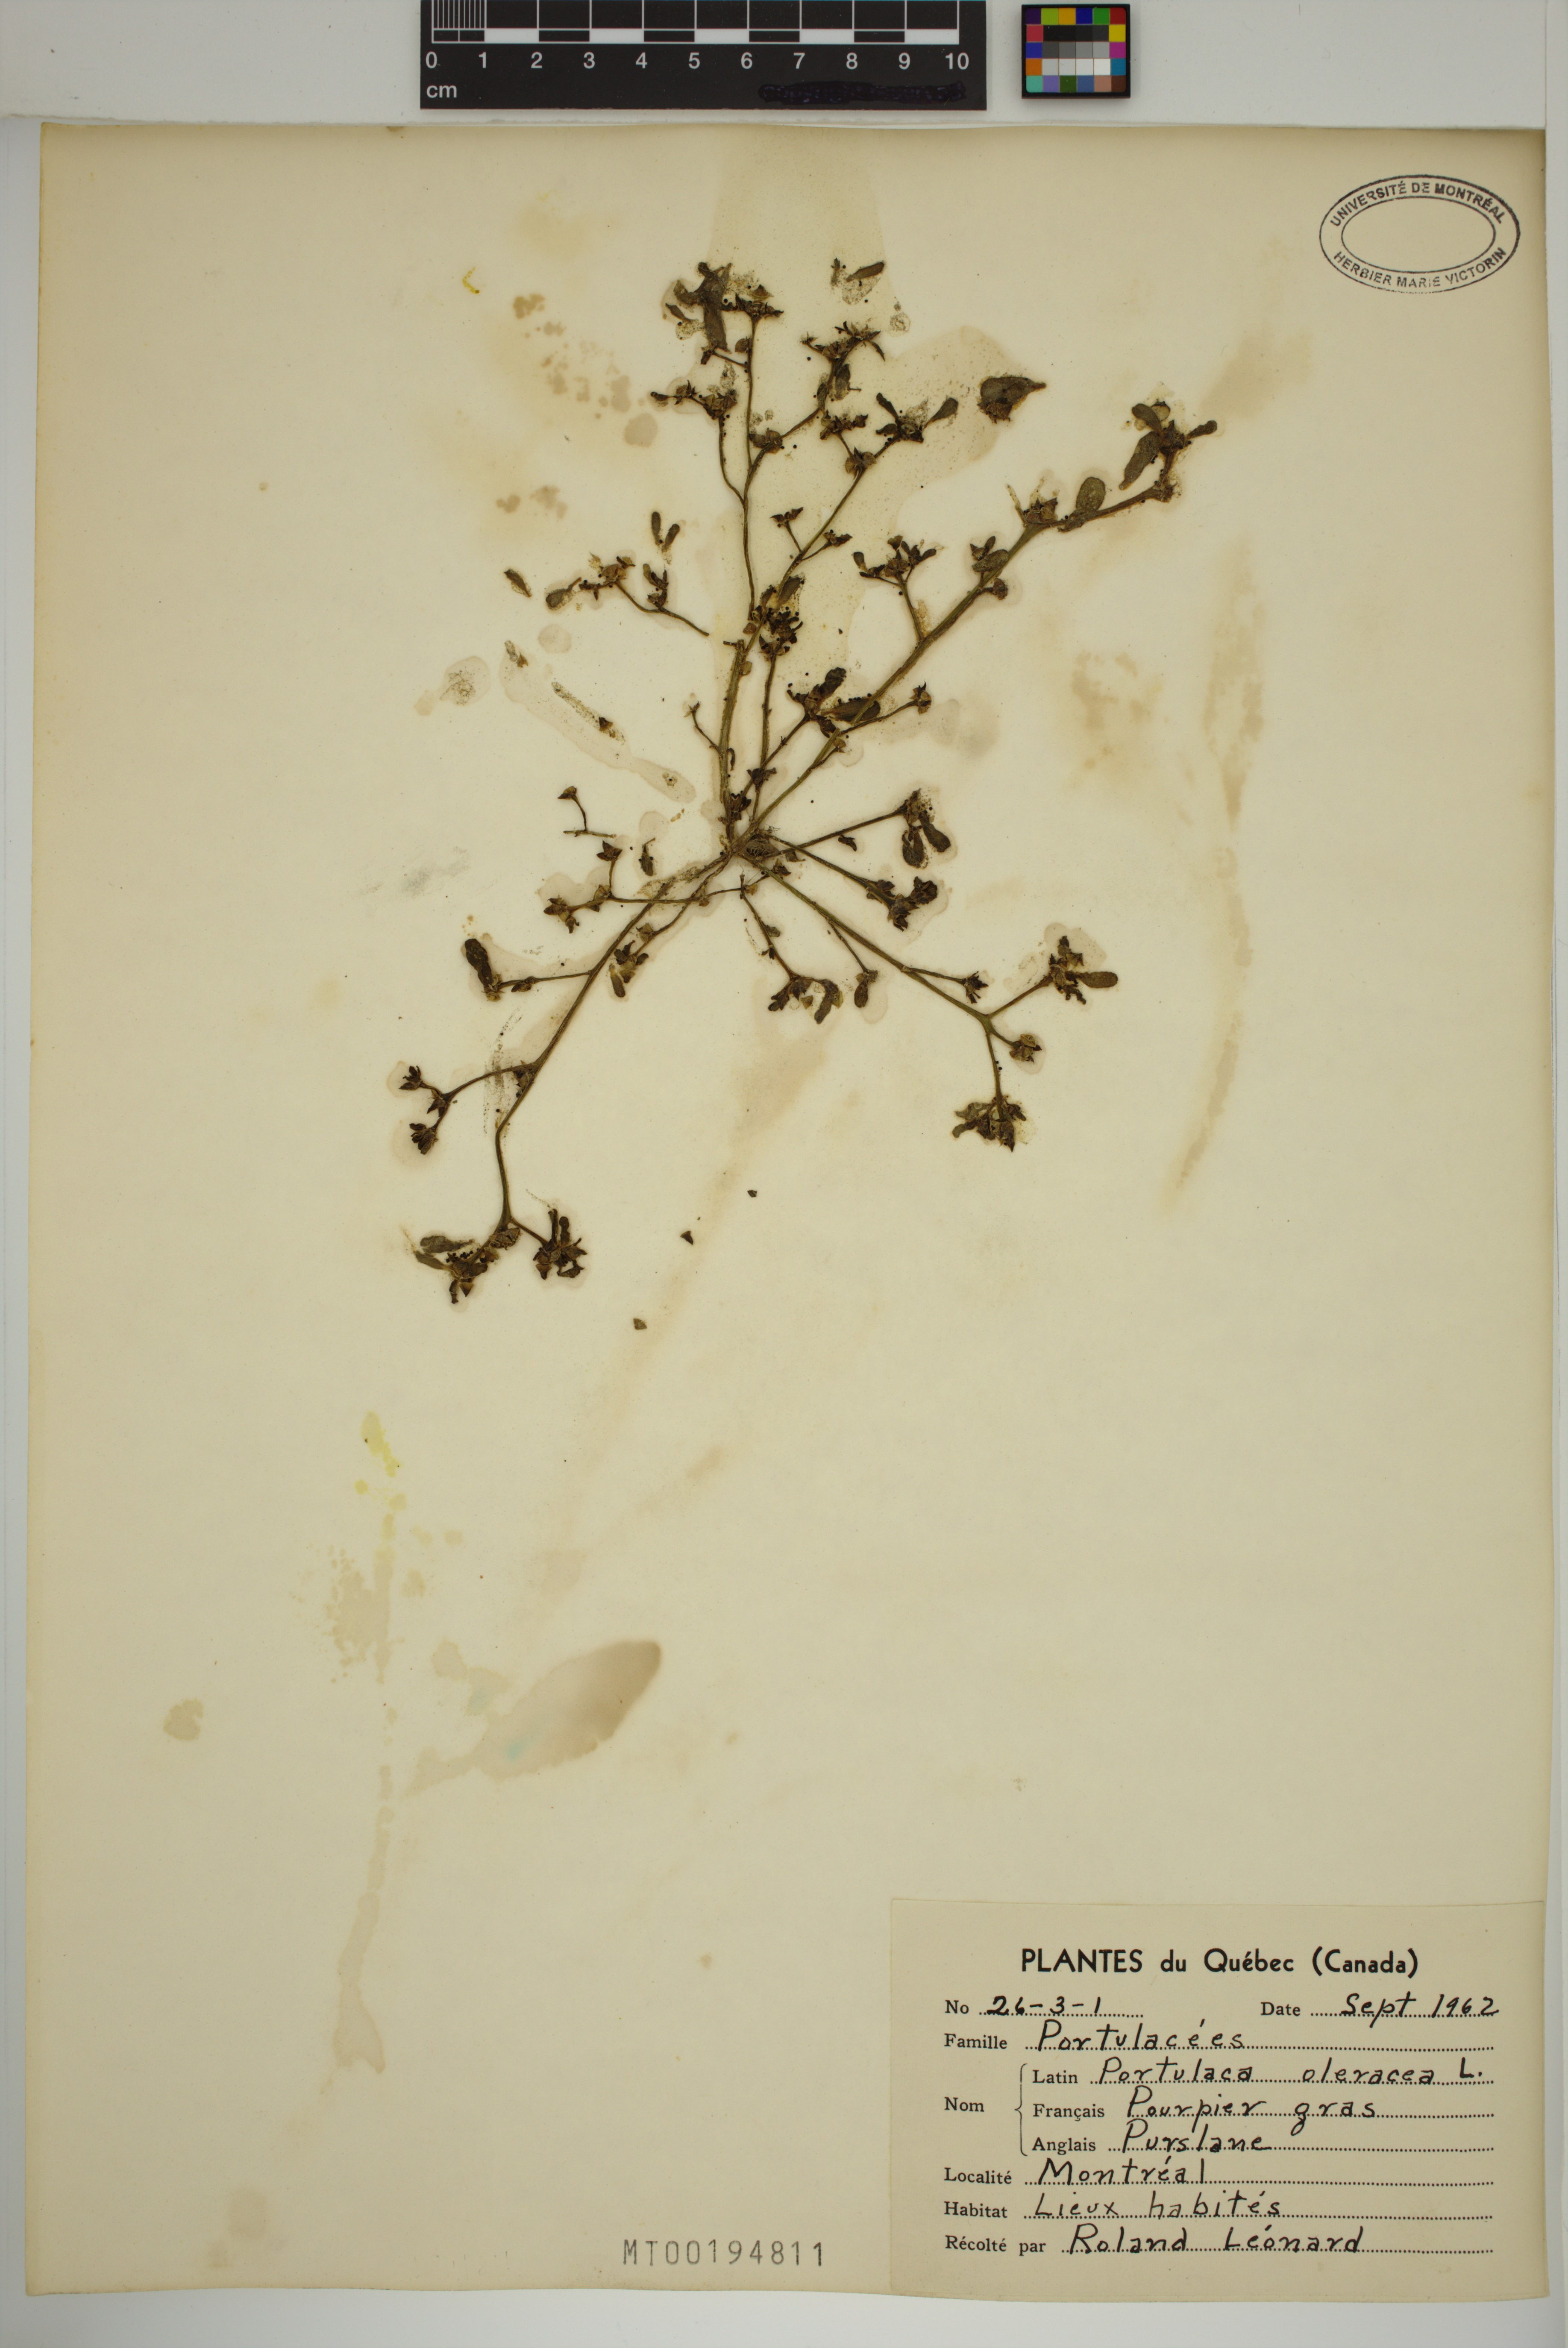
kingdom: Plantae
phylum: Tracheophyta
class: Magnoliopsida
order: Caryophyllales
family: Portulacaceae
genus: Portulaca
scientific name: Portulaca oleracea
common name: Common purslane
